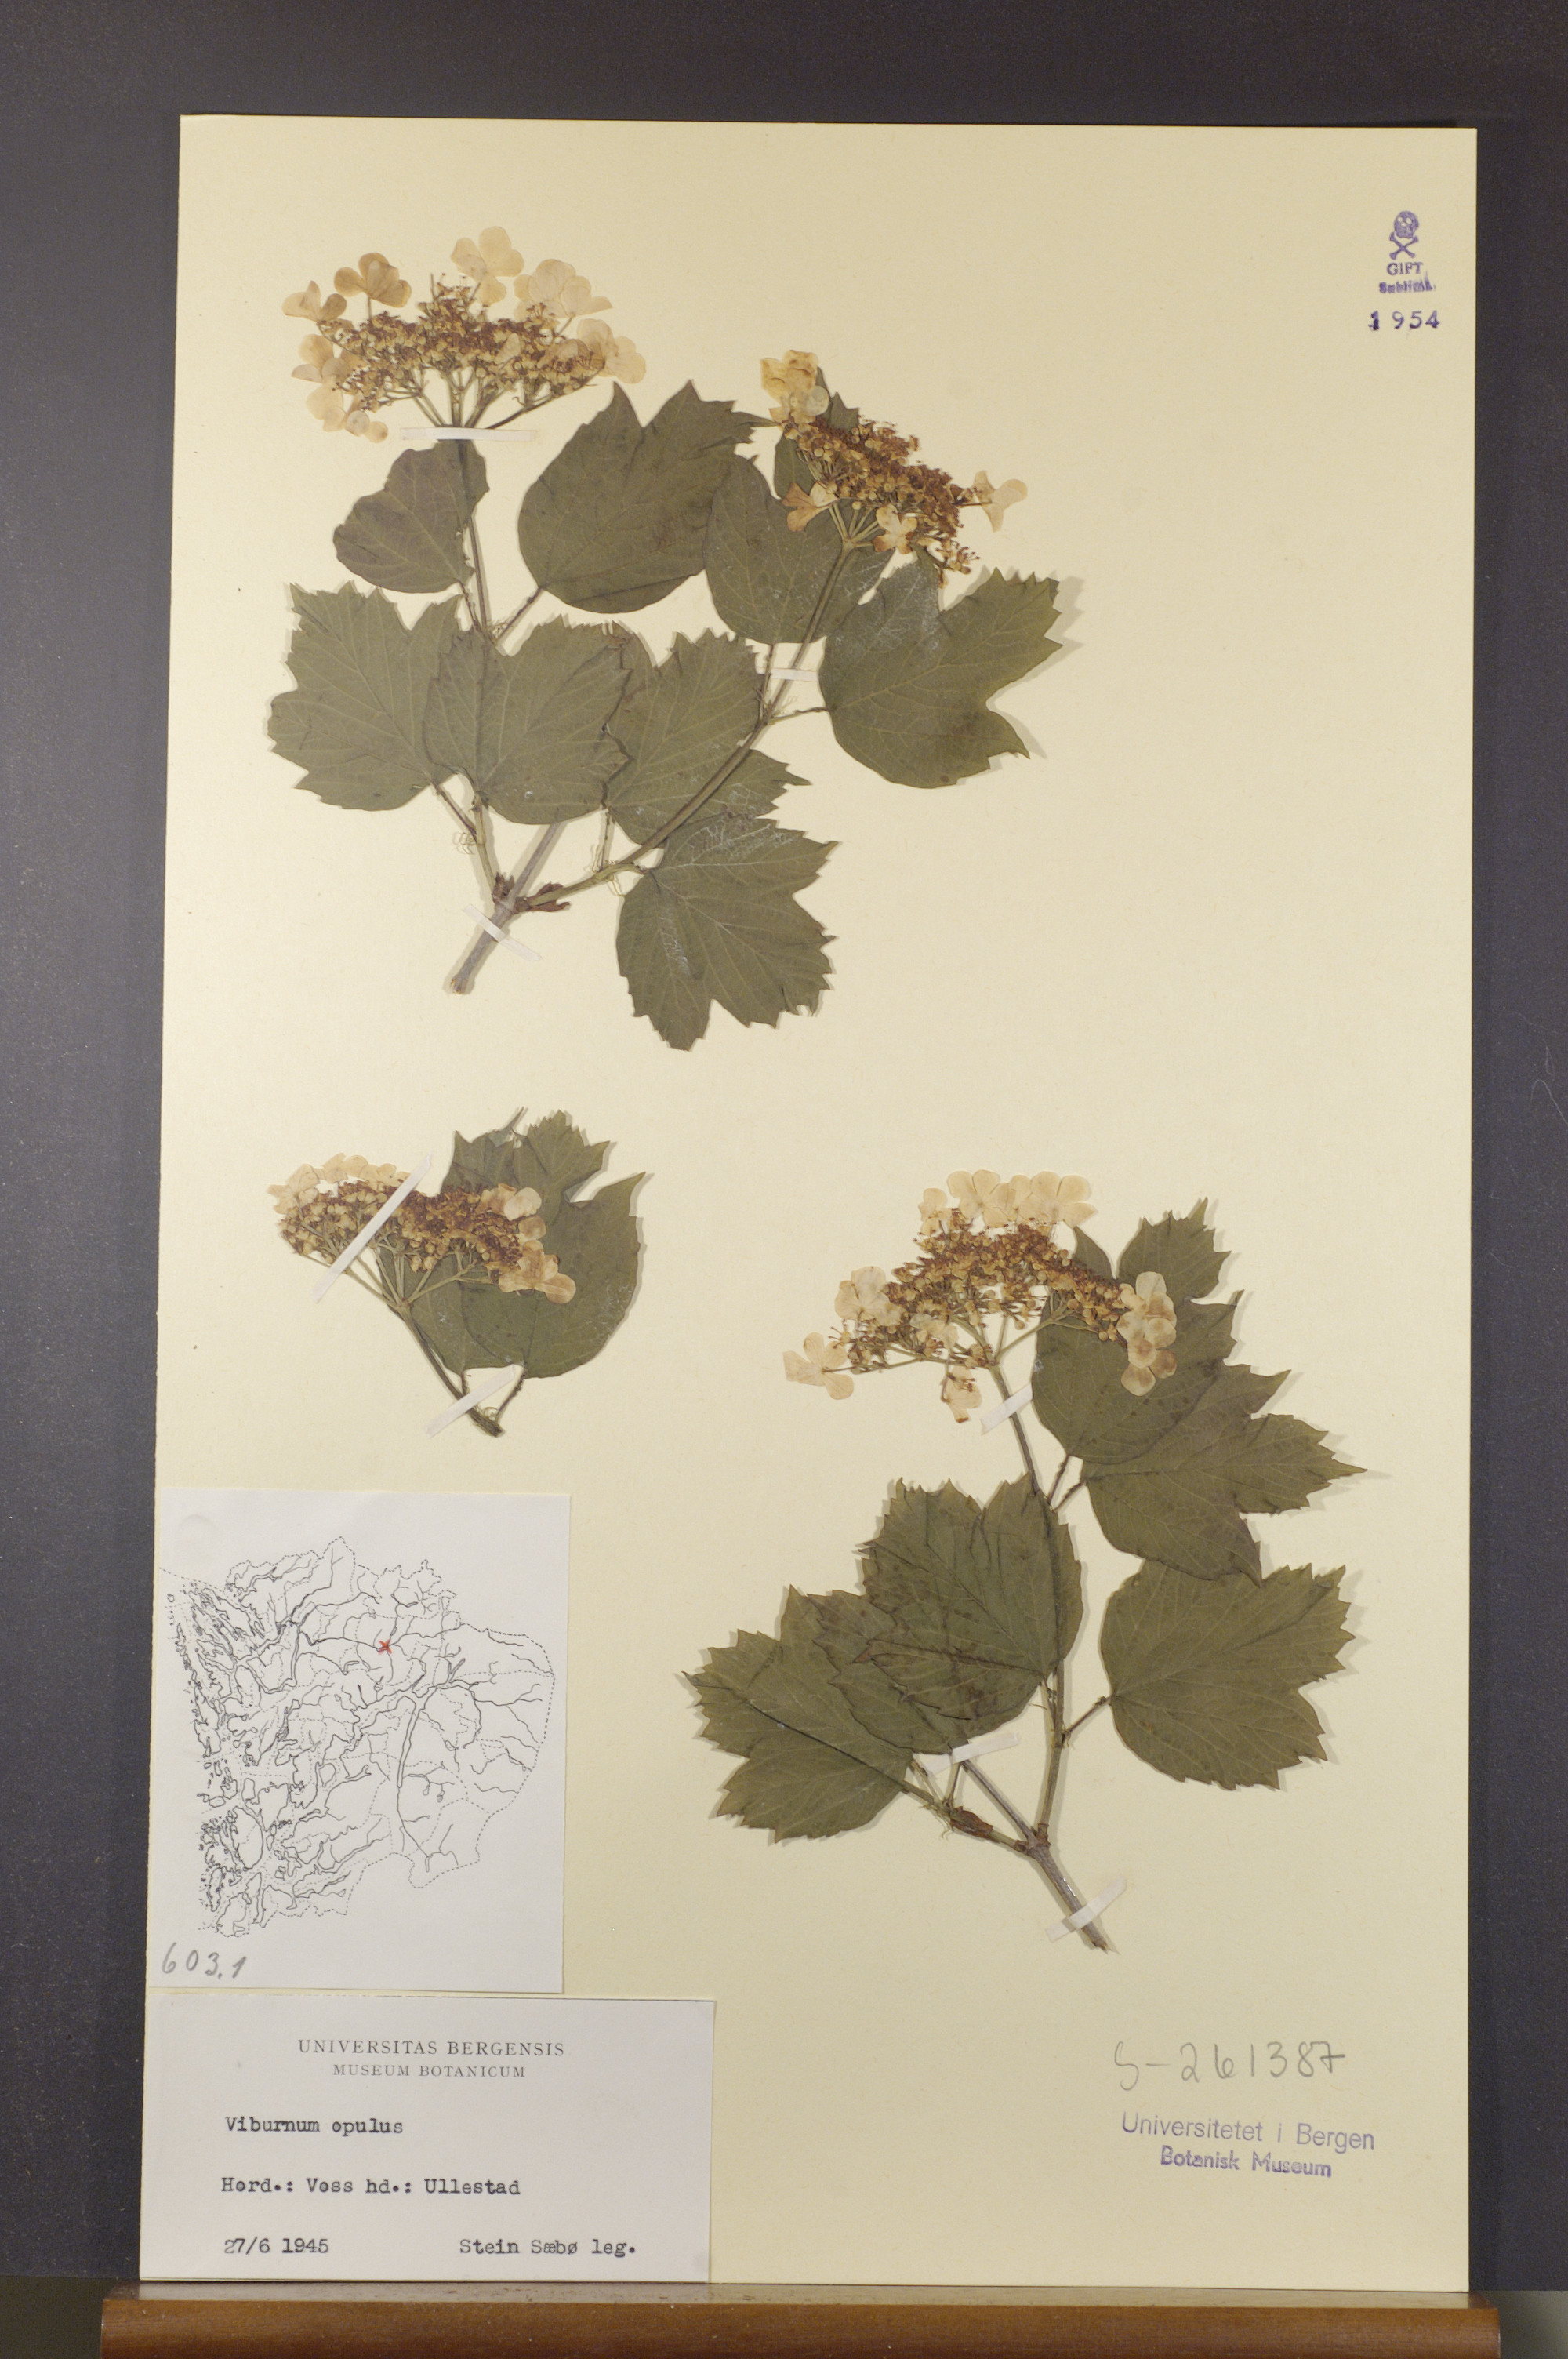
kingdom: Plantae
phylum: Tracheophyta
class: Magnoliopsida
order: Dipsacales
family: Viburnaceae
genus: Viburnum
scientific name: Viburnum opulus
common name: Guelder-rose
